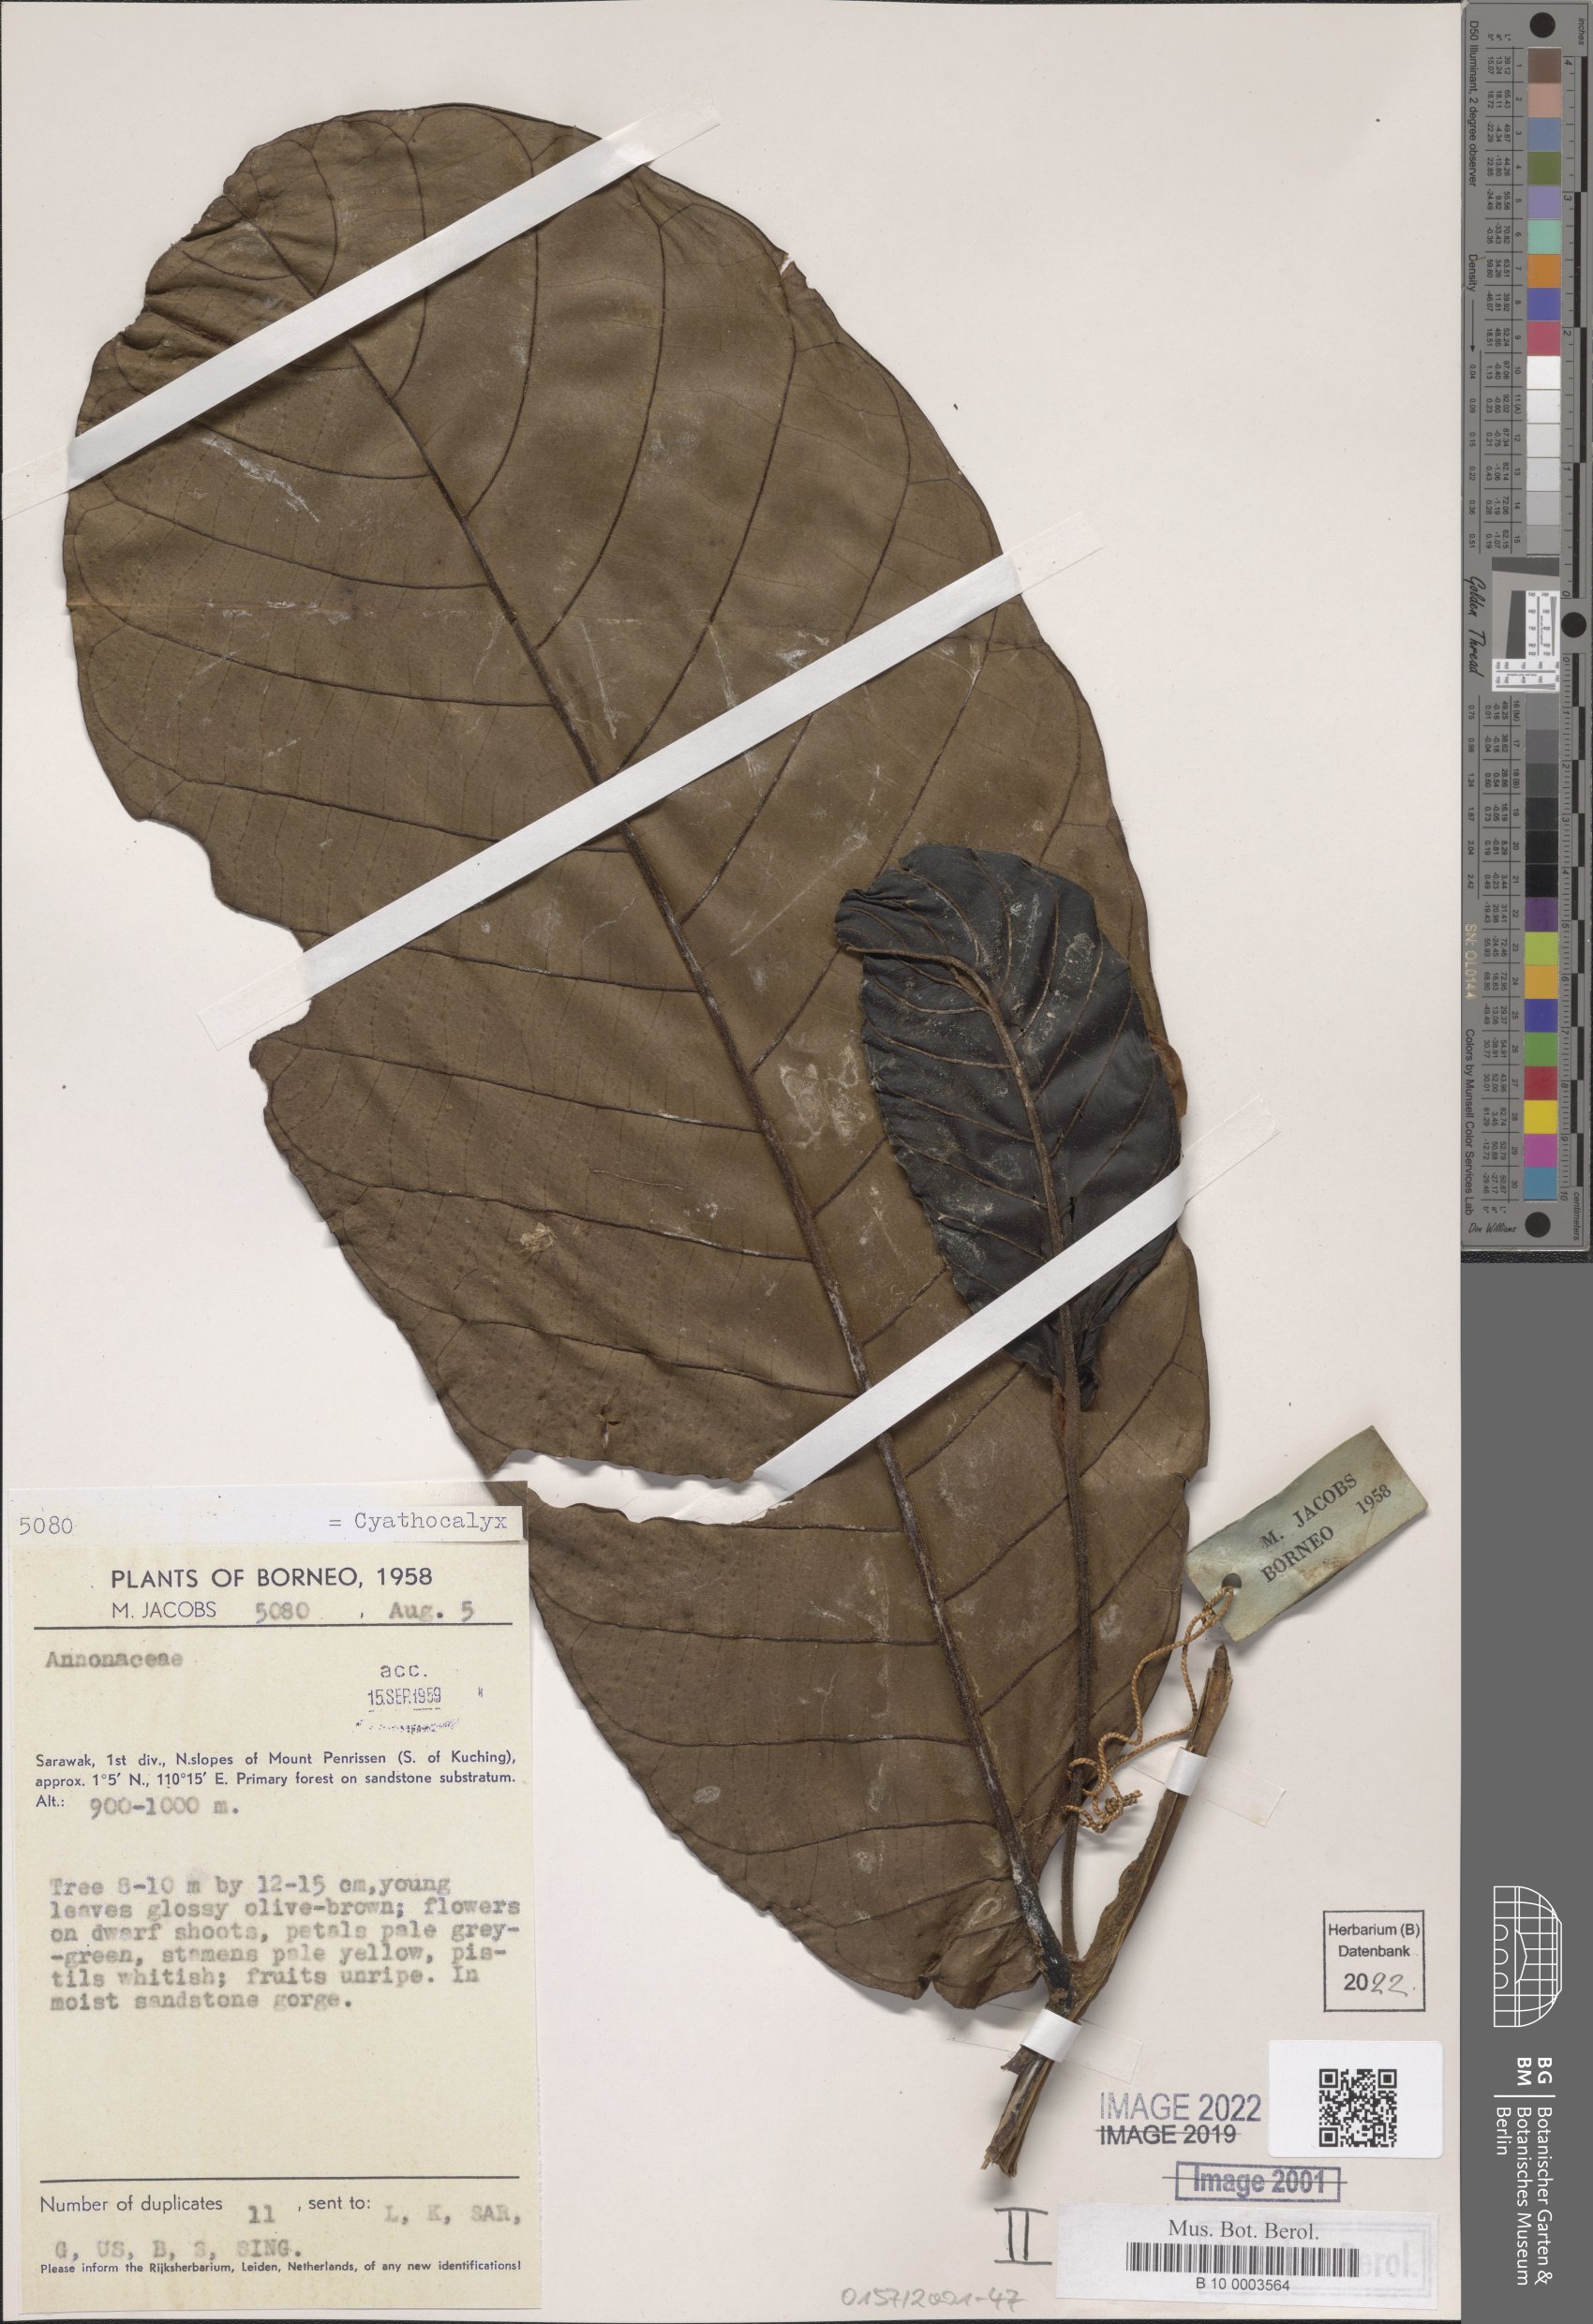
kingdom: Plantae
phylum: Tracheophyta
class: Magnoliopsida
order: Magnoliales
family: Annonaceae
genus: Cyathocalyx
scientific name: Cyathocalyx
